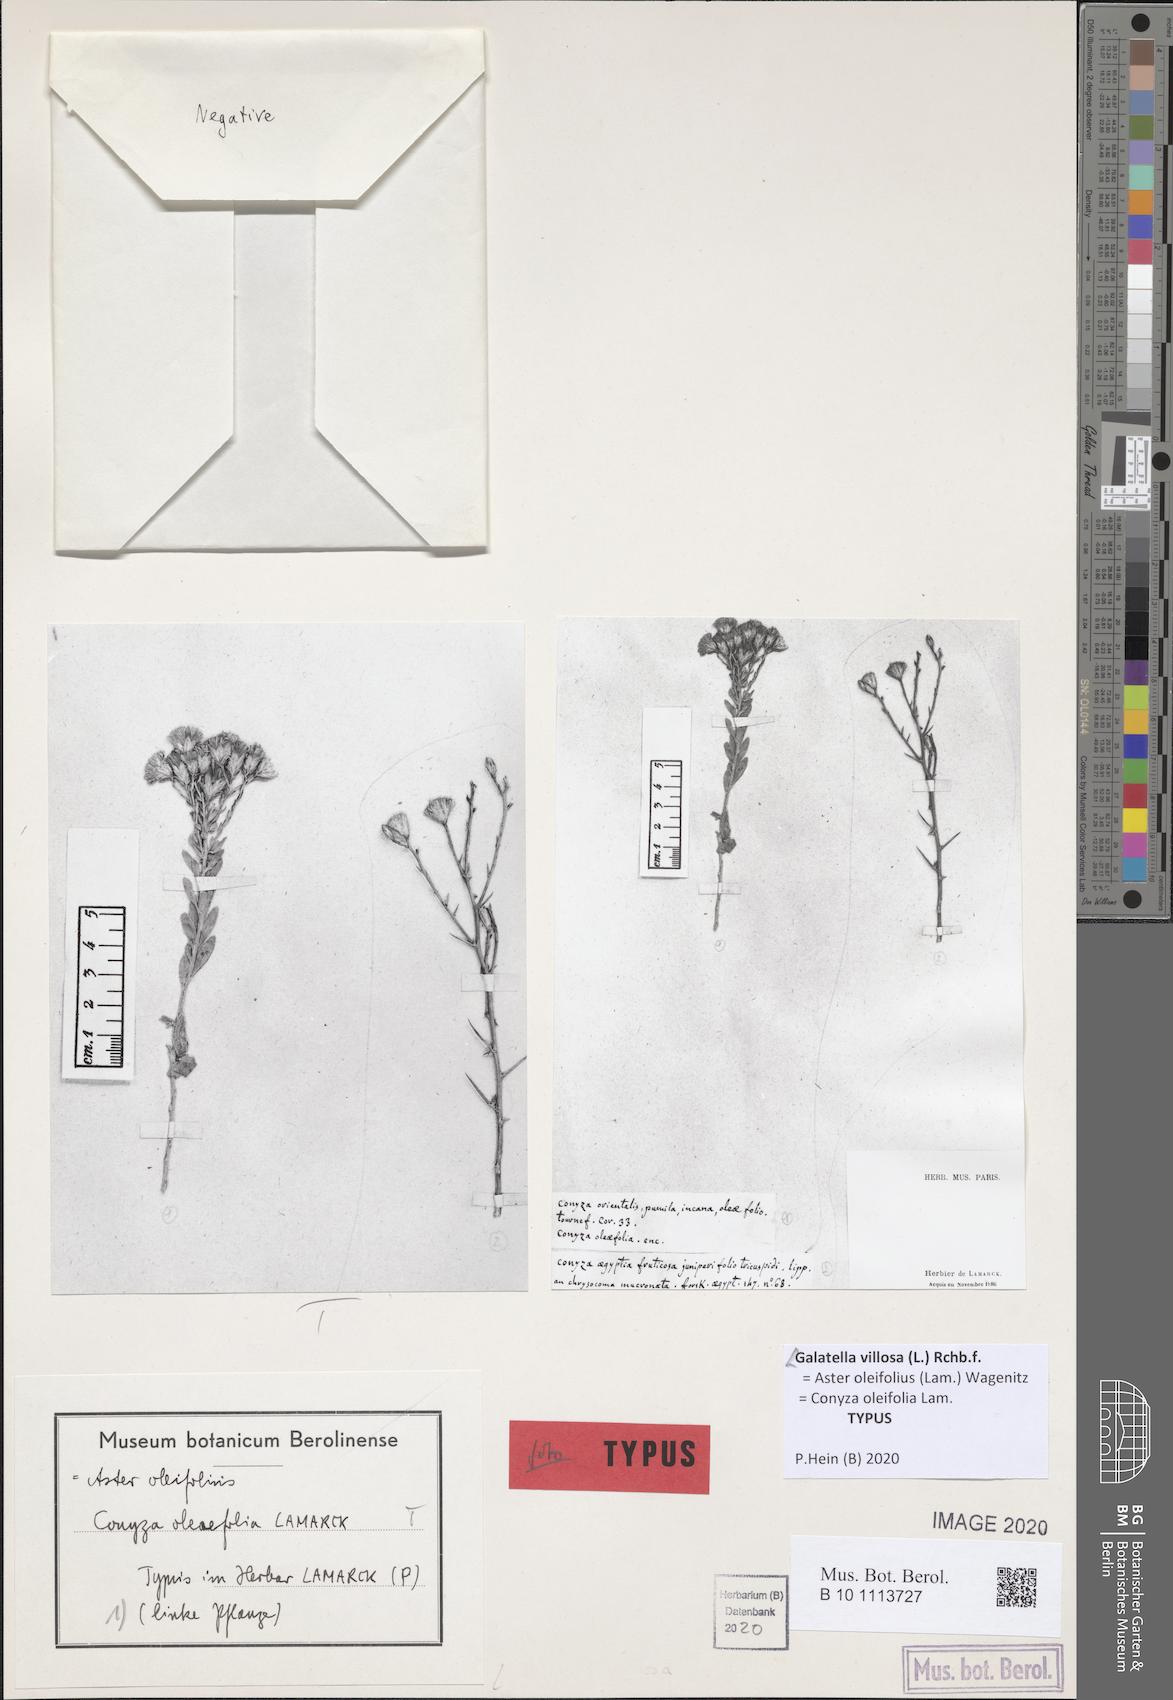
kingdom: Plantae
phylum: Tracheophyta
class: Magnoliopsida
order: Asterales
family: Asteraceae
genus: Galatella
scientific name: Galatella villosa
